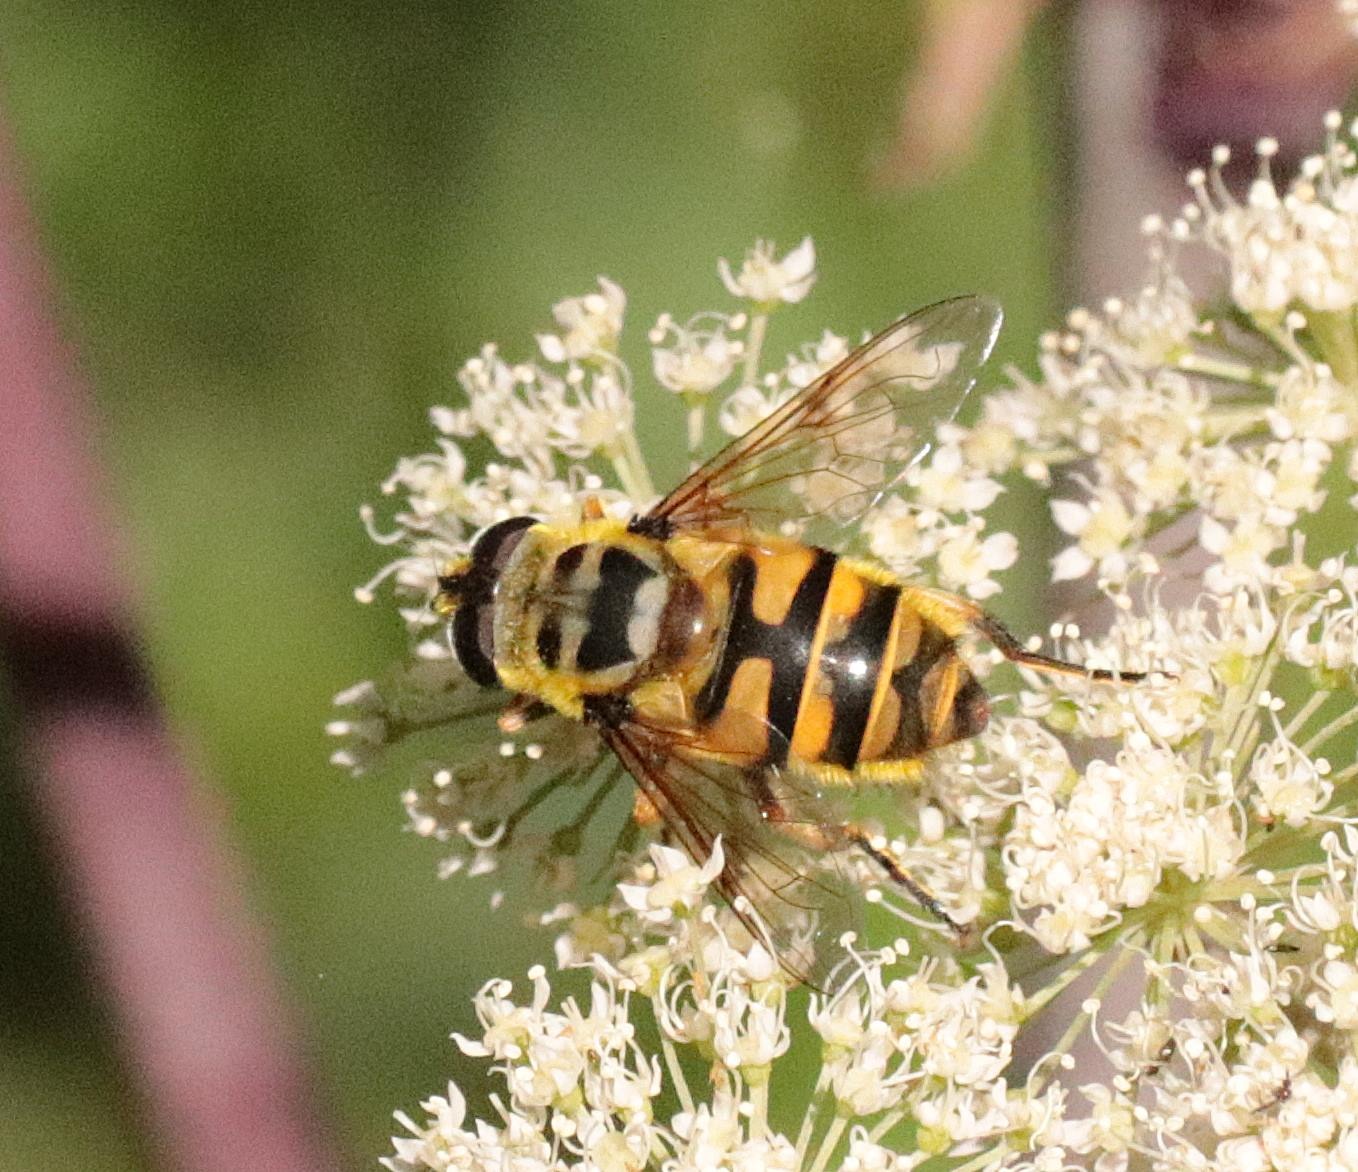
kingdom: Animalia
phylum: Arthropoda
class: Insecta
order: Diptera
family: Syrphidae
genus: Myathropa
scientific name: Myathropa florea
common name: Dødningehoved-svirreflue
